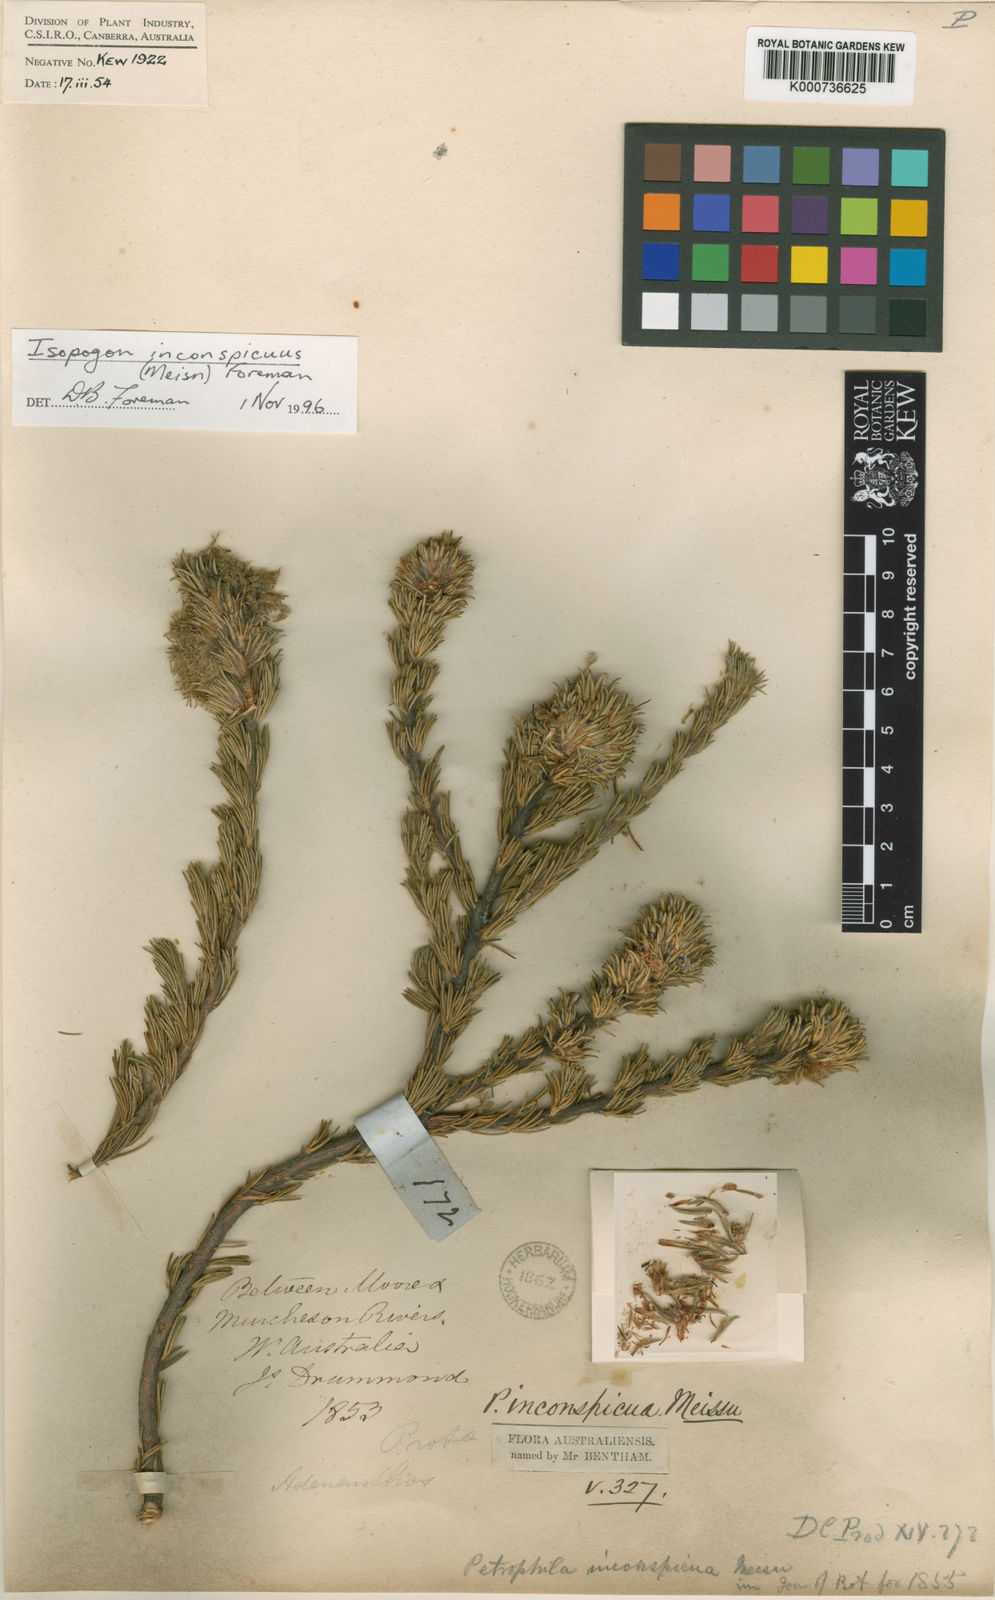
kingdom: Plantae
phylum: Tracheophyta
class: Magnoliopsida
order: Proteales
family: Proteaceae
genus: Isopogon
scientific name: Isopogon inconspicuus
